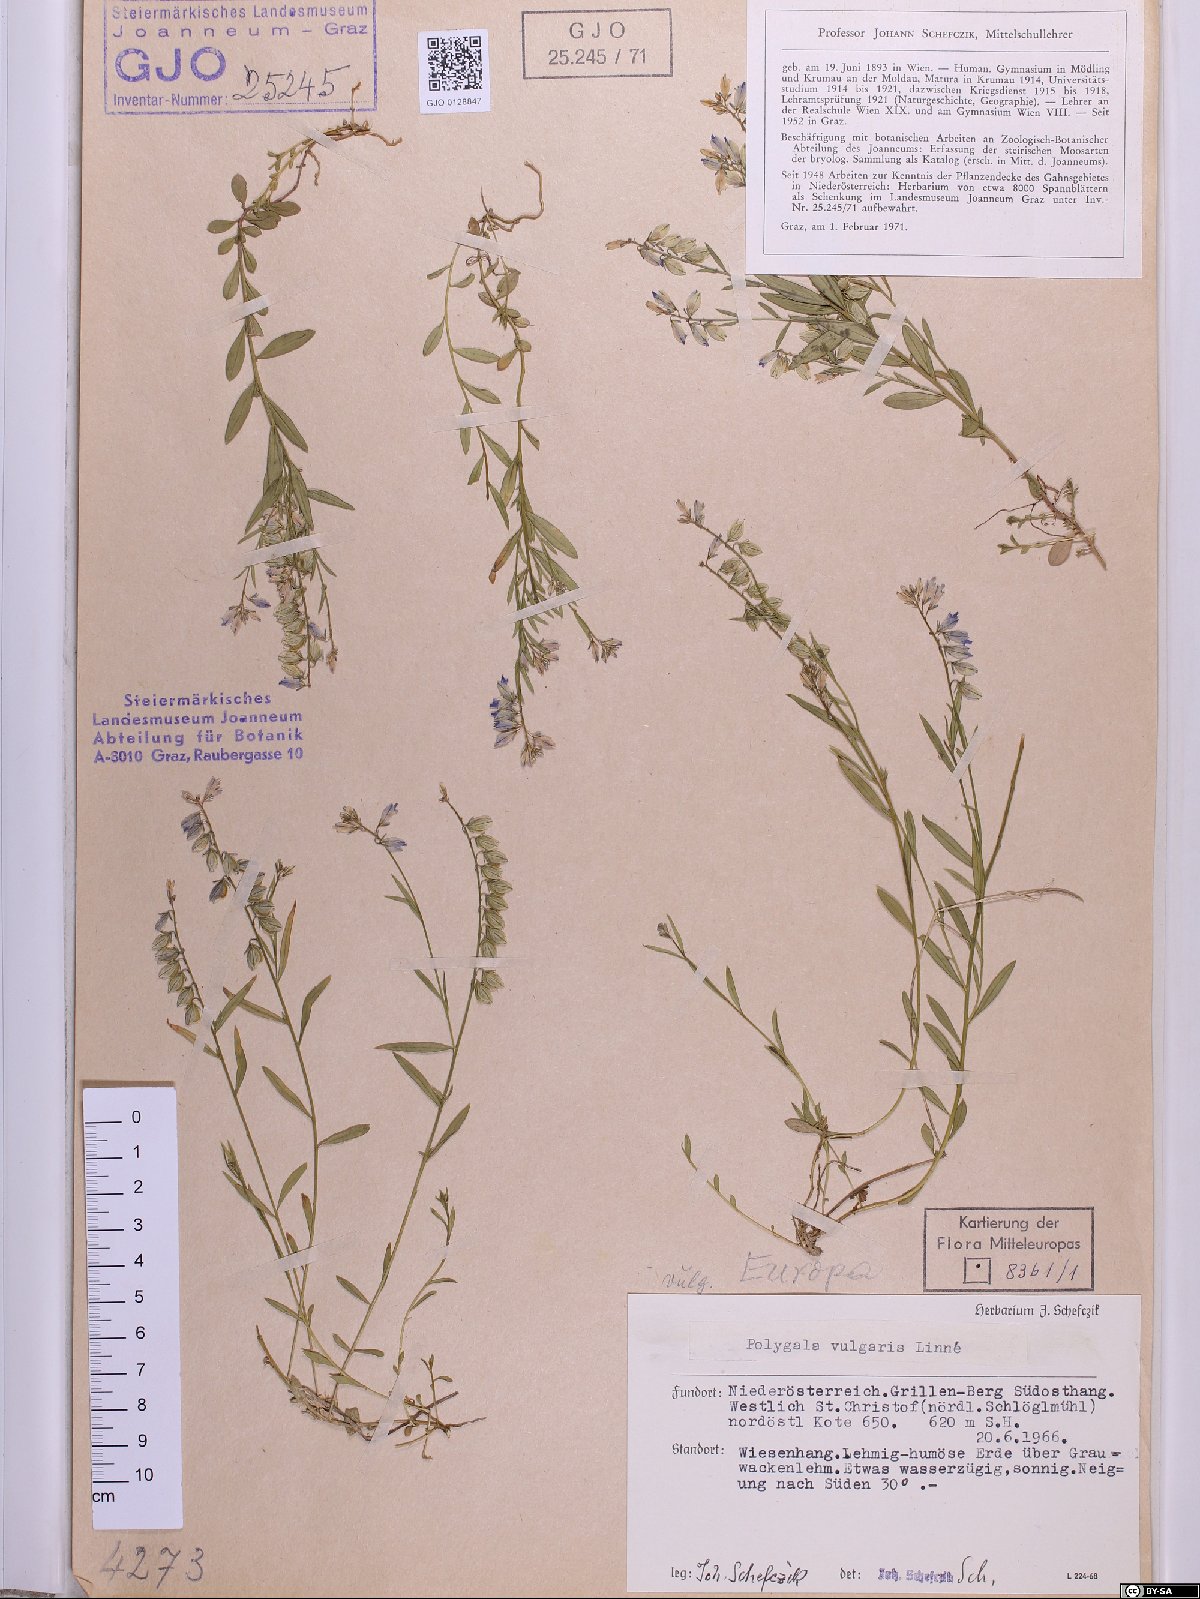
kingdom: Plantae
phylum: Tracheophyta
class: Magnoliopsida
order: Fabales
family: Polygalaceae
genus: Polygala
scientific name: Polygala vulgaris
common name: Common milkwort
